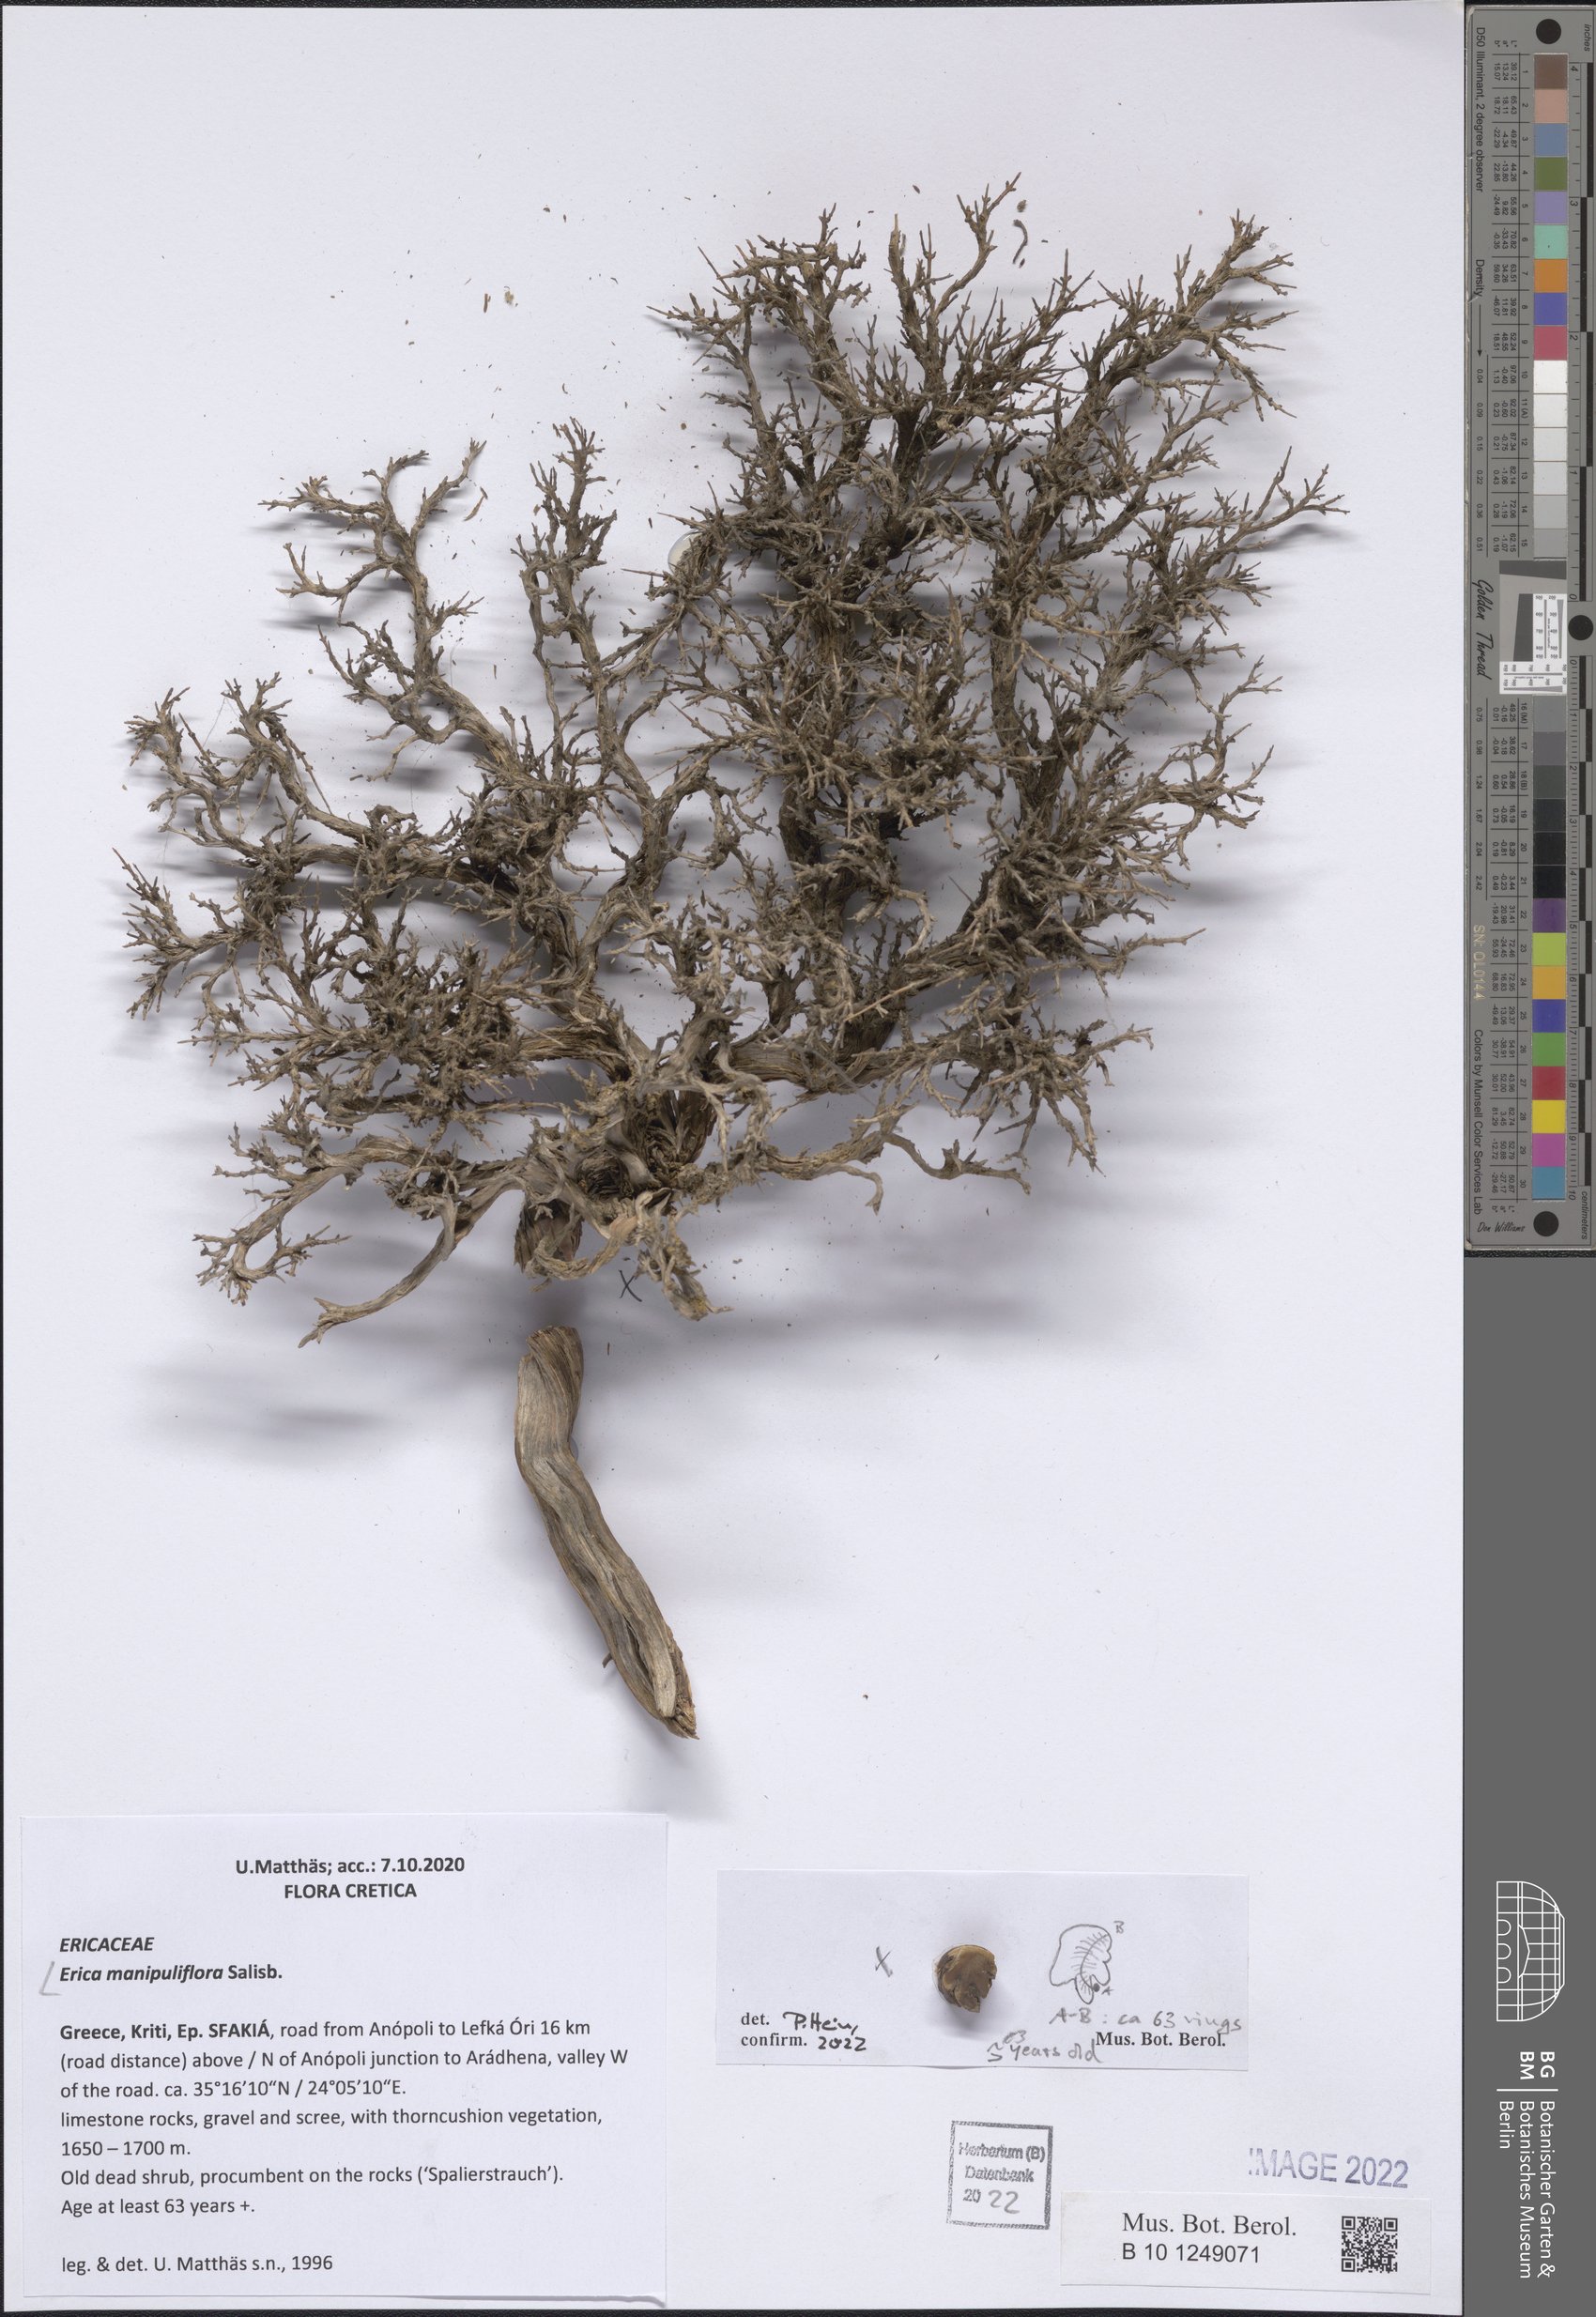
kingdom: Plantae
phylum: Tracheophyta
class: Magnoliopsida
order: Ericales
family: Ericaceae
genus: Erica
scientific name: Erica manipuliflora
